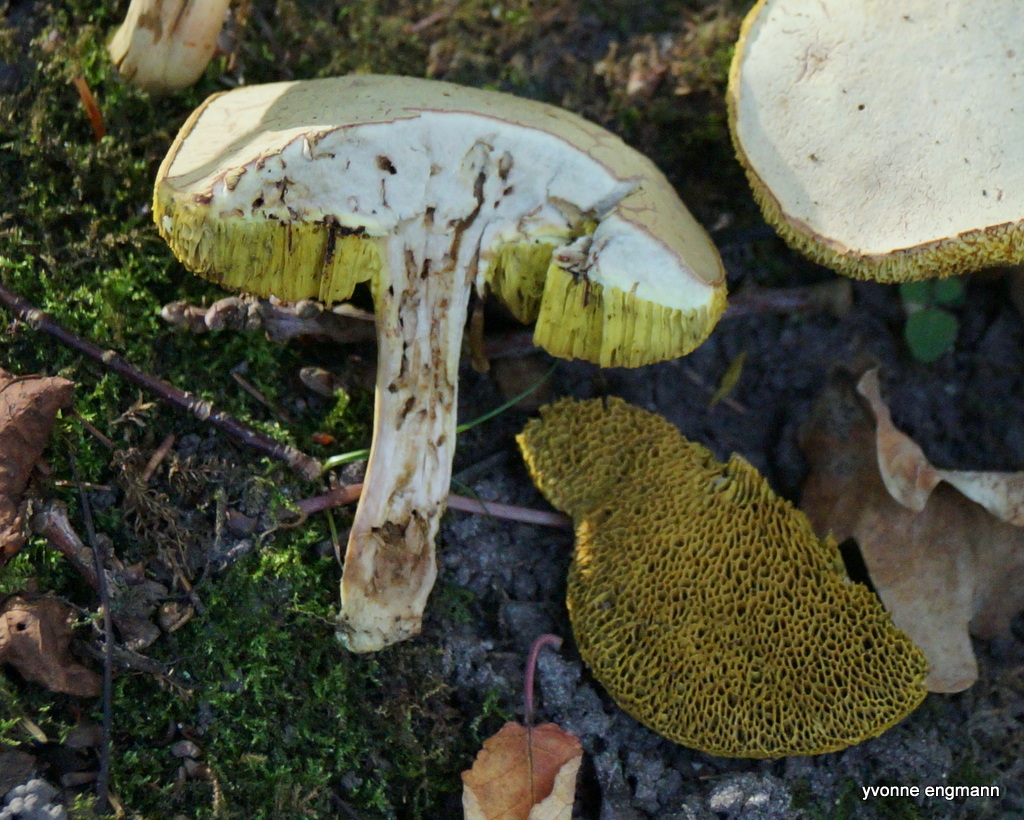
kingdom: Fungi
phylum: Basidiomycota
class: Agaricomycetes
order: Boletales
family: Boletaceae
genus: Xerocomus
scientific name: Xerocomus
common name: filtrørhat
